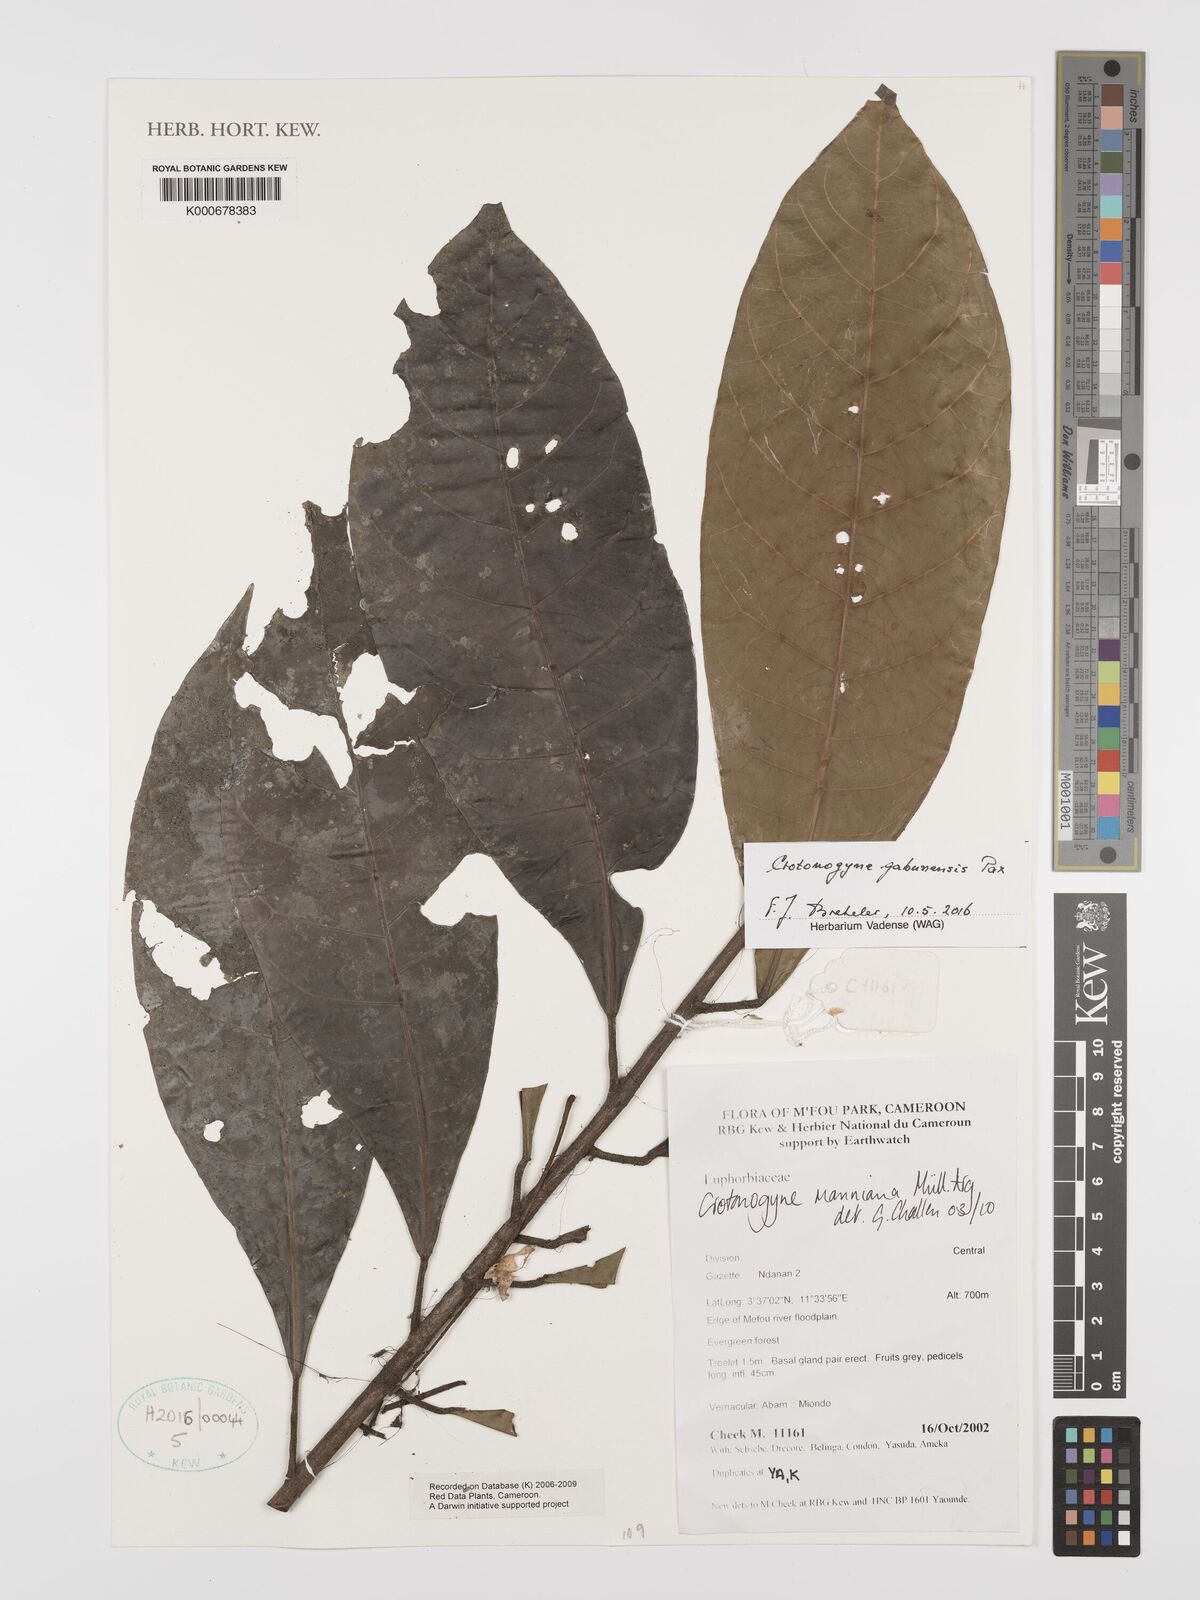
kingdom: Plantae
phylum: Tracheophyta
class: Magnoliopsida
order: Malpighiales
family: Euphorbiaceae
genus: Crotonogyne
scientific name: Crotonogyne
